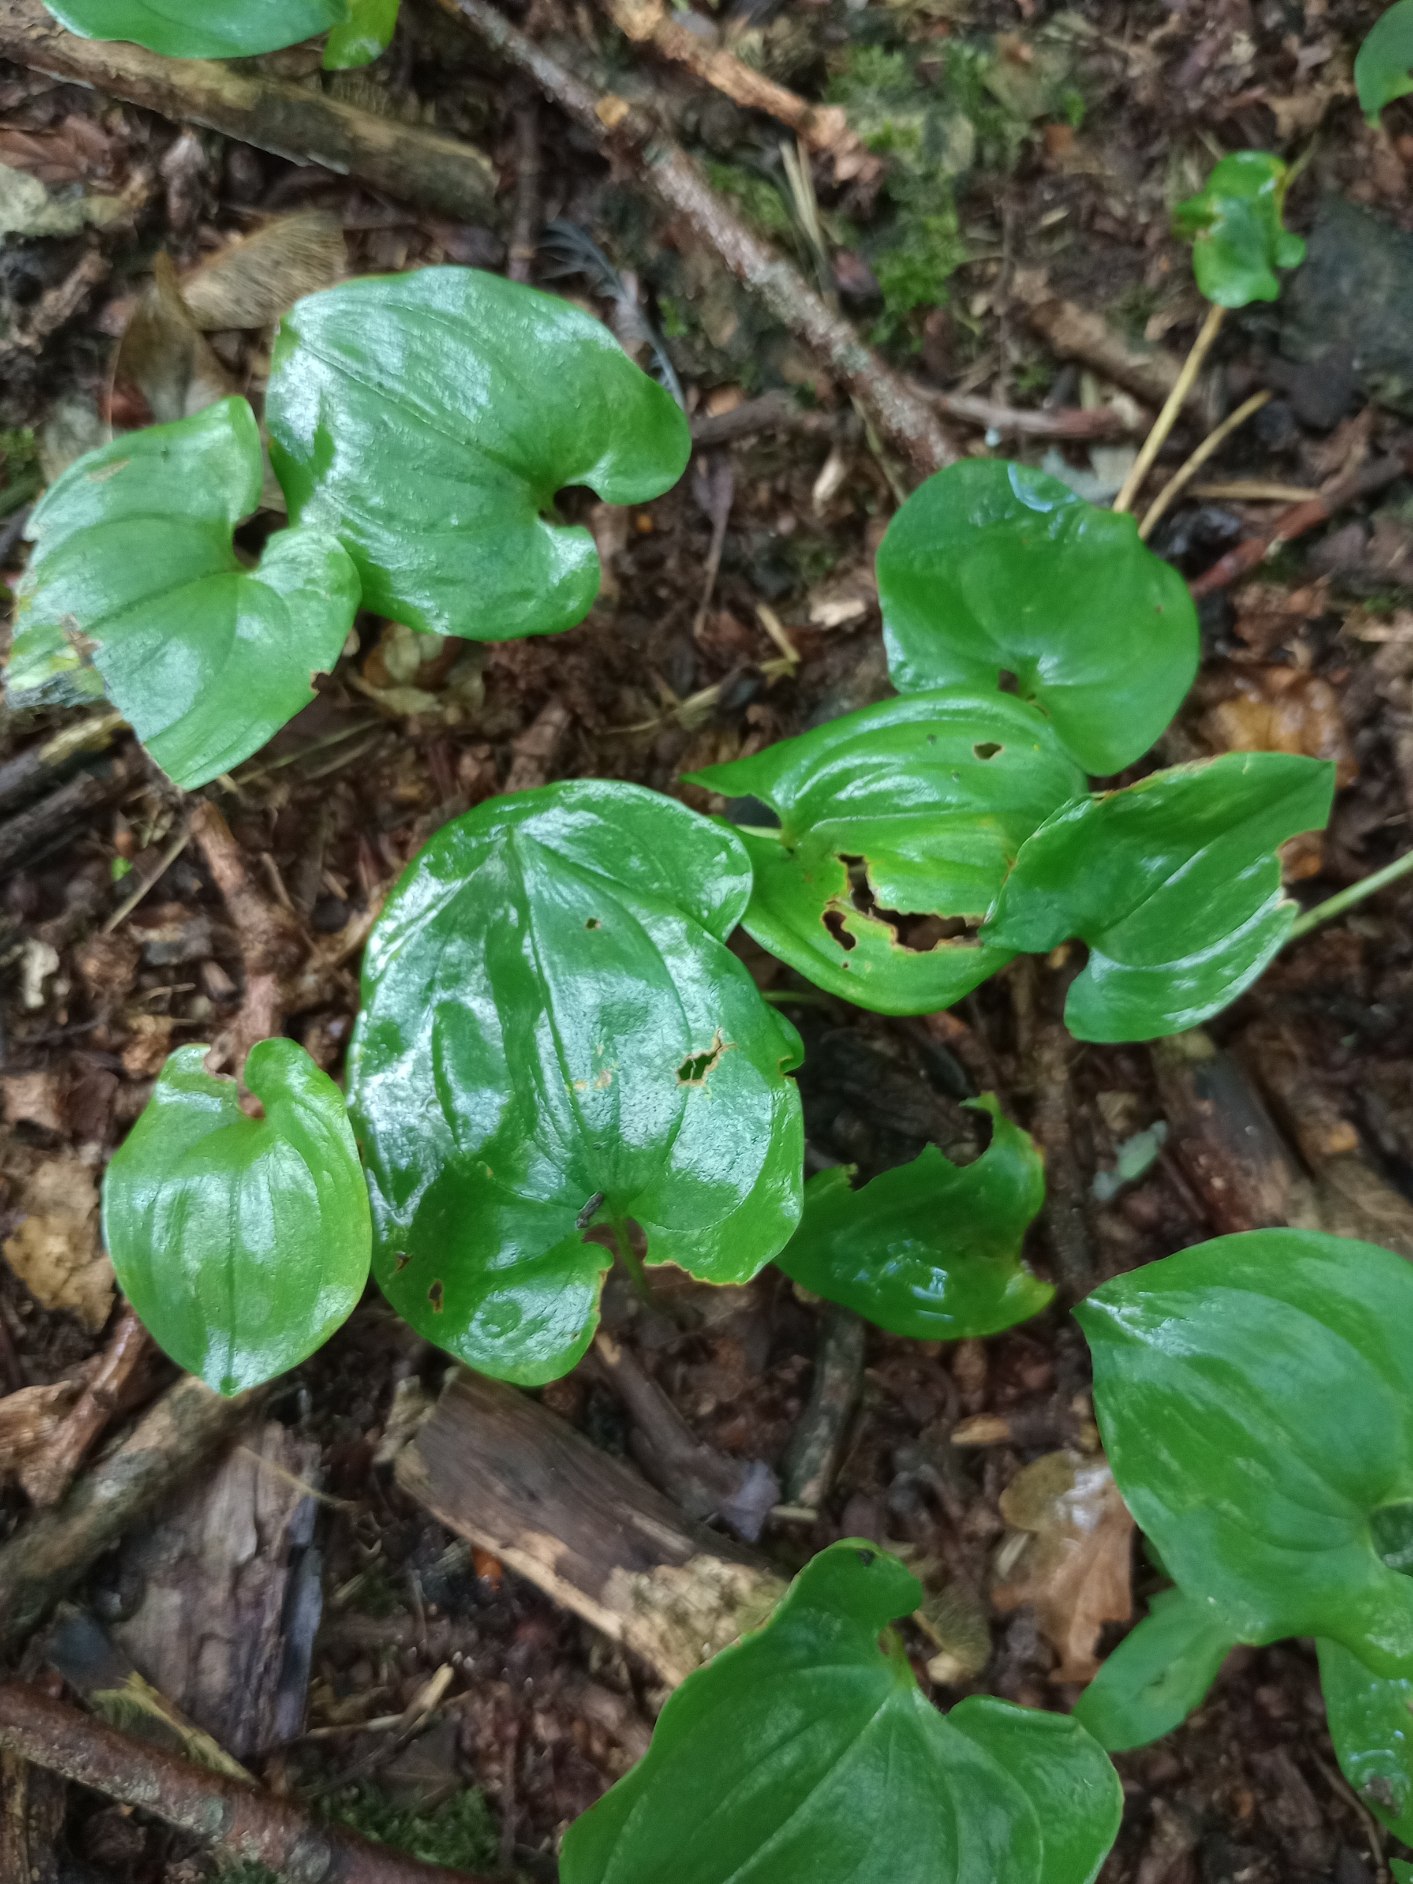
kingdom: Plantae
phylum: Tracheophyta
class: Liliopsida
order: Asparagales
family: Asparagaceae
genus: Maianthemum
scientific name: Maianthemum bifolium
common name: Majblomst
